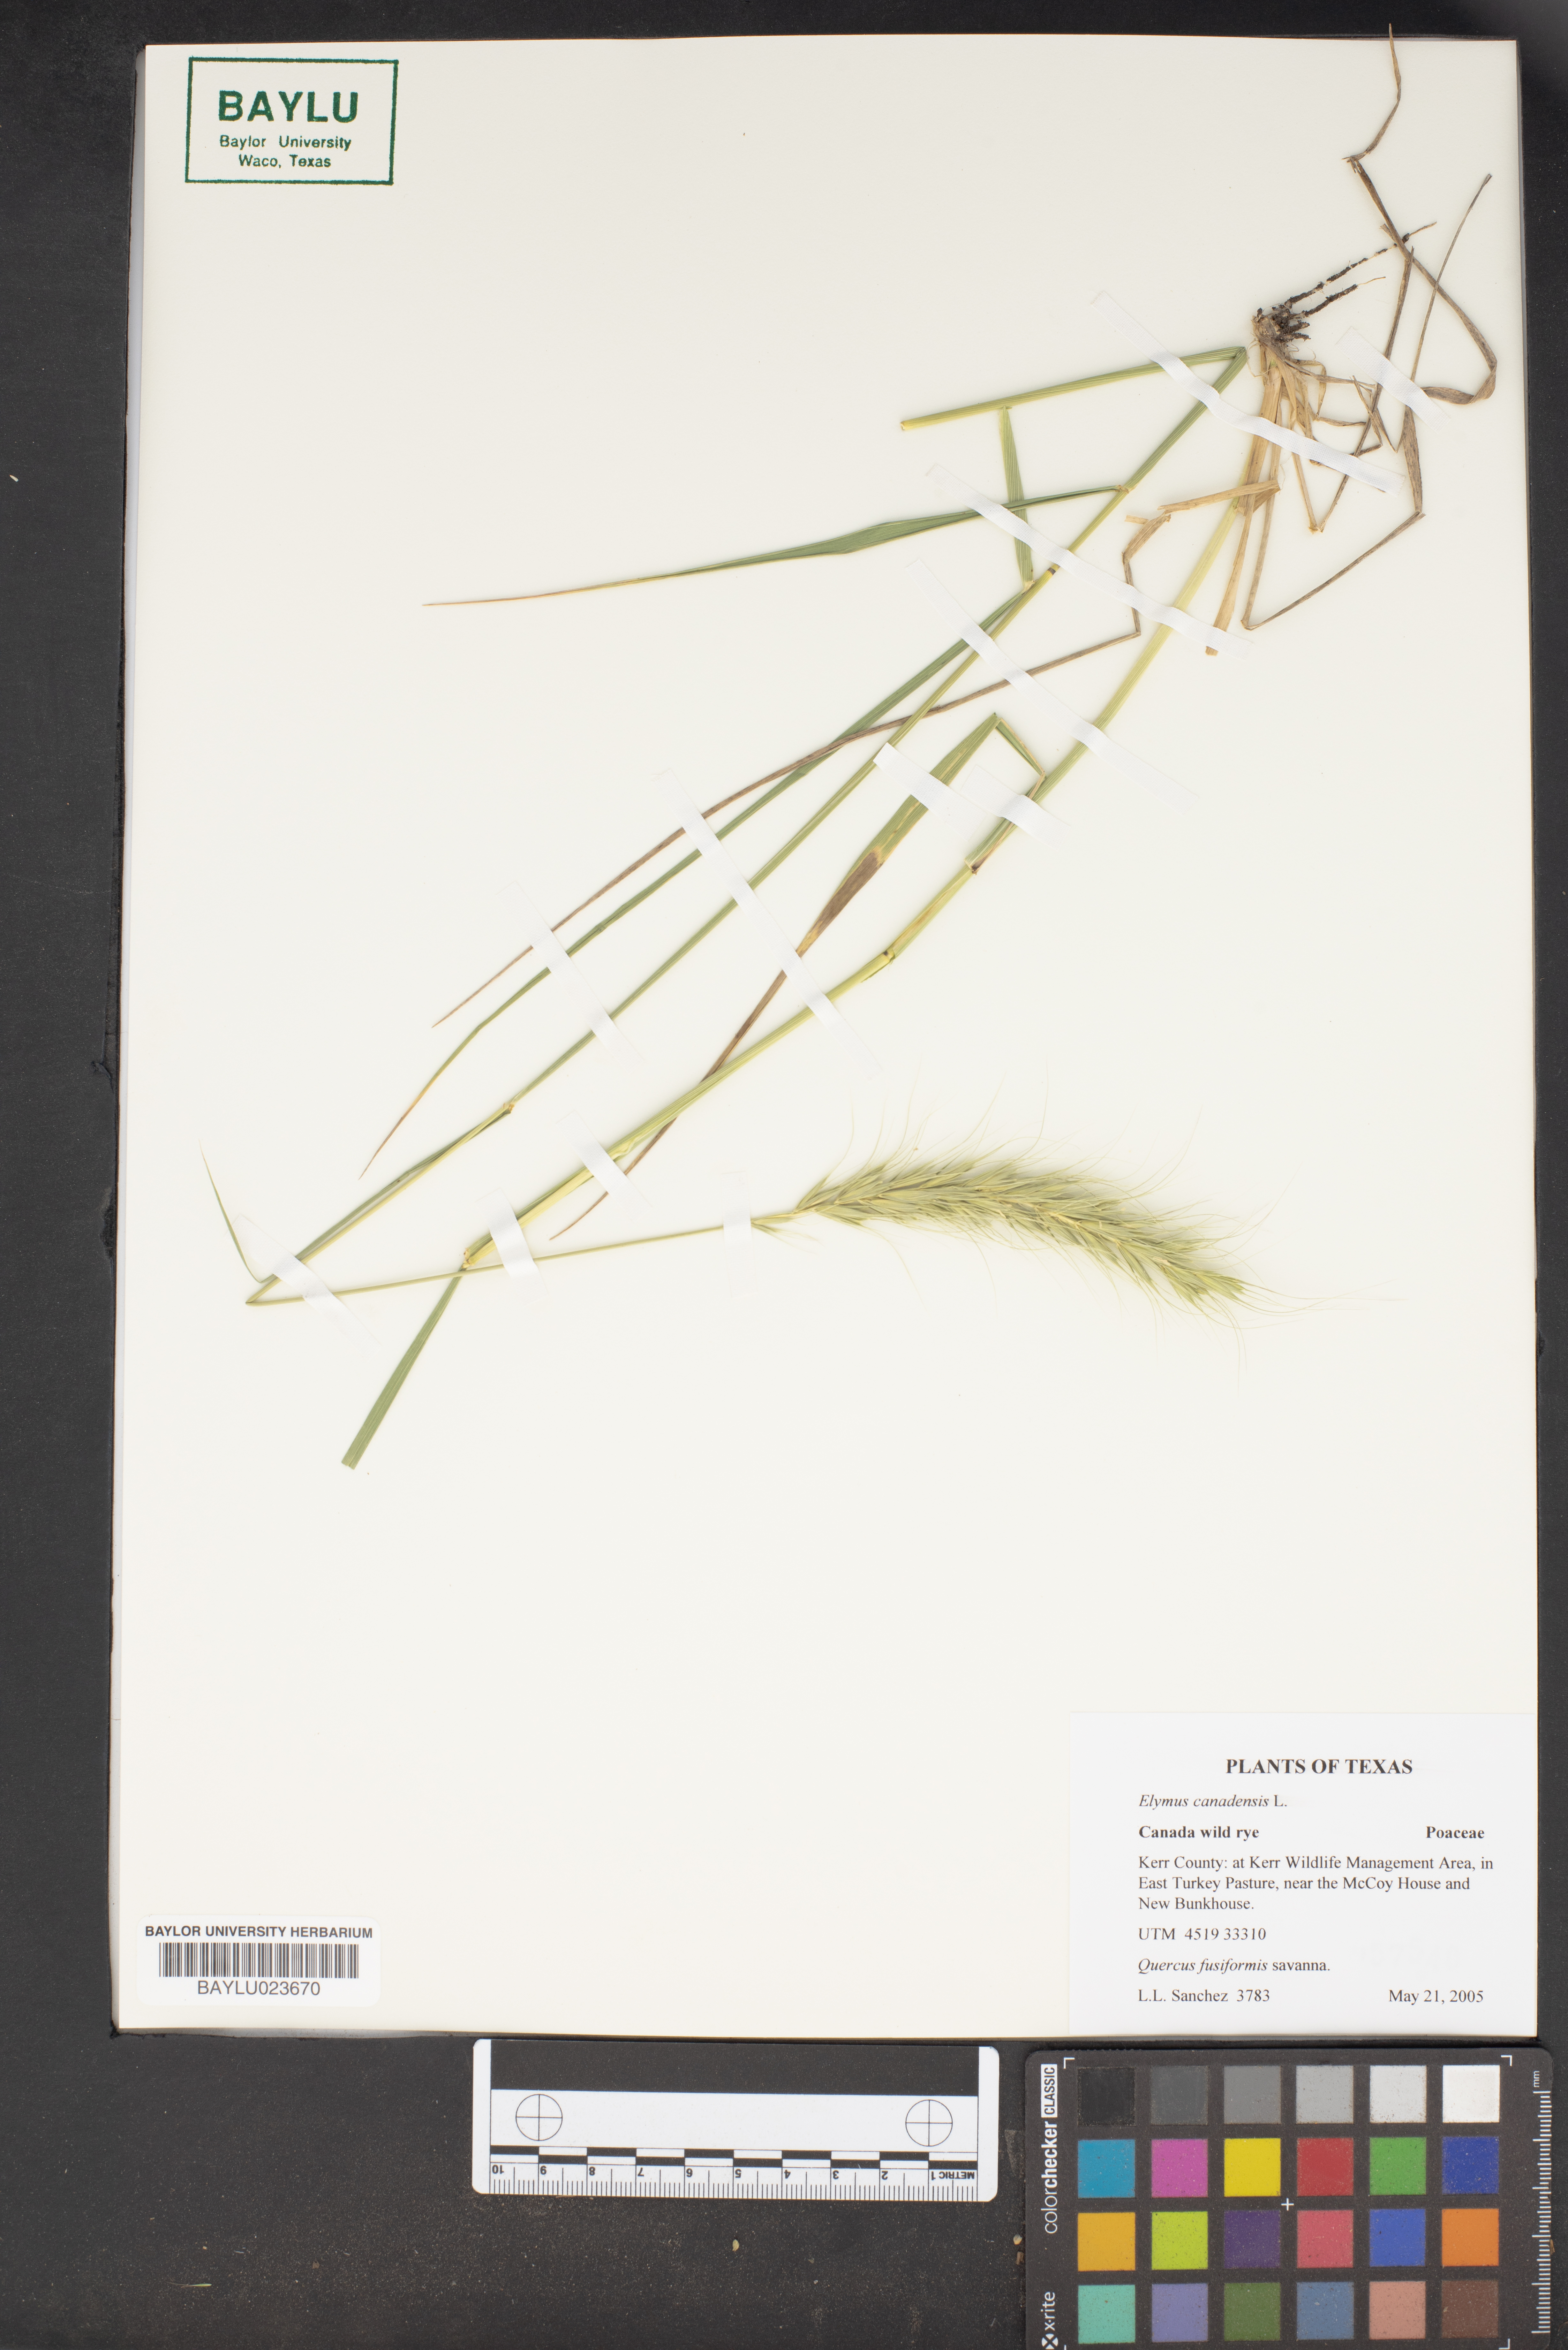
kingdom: Plantae
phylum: Tracheophyta
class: Liliopsida
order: Poales
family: Poaceae
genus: Elymus
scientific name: Elymus canadensis
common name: Canada wild rye
